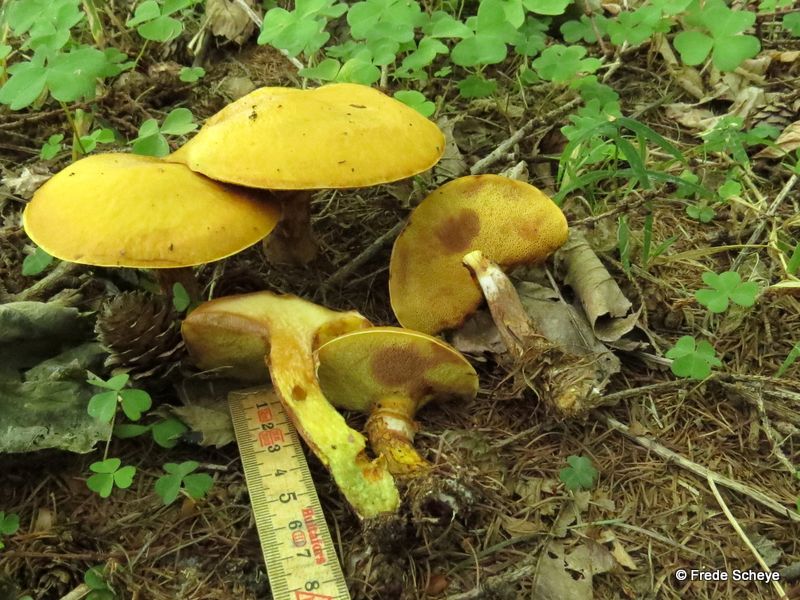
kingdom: Fungi
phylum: Basidiomycota
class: Agaricomycetes
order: Boletales
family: Suillaceae
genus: Suillus
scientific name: Suillus grevillei
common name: lærke-slimrørhat
